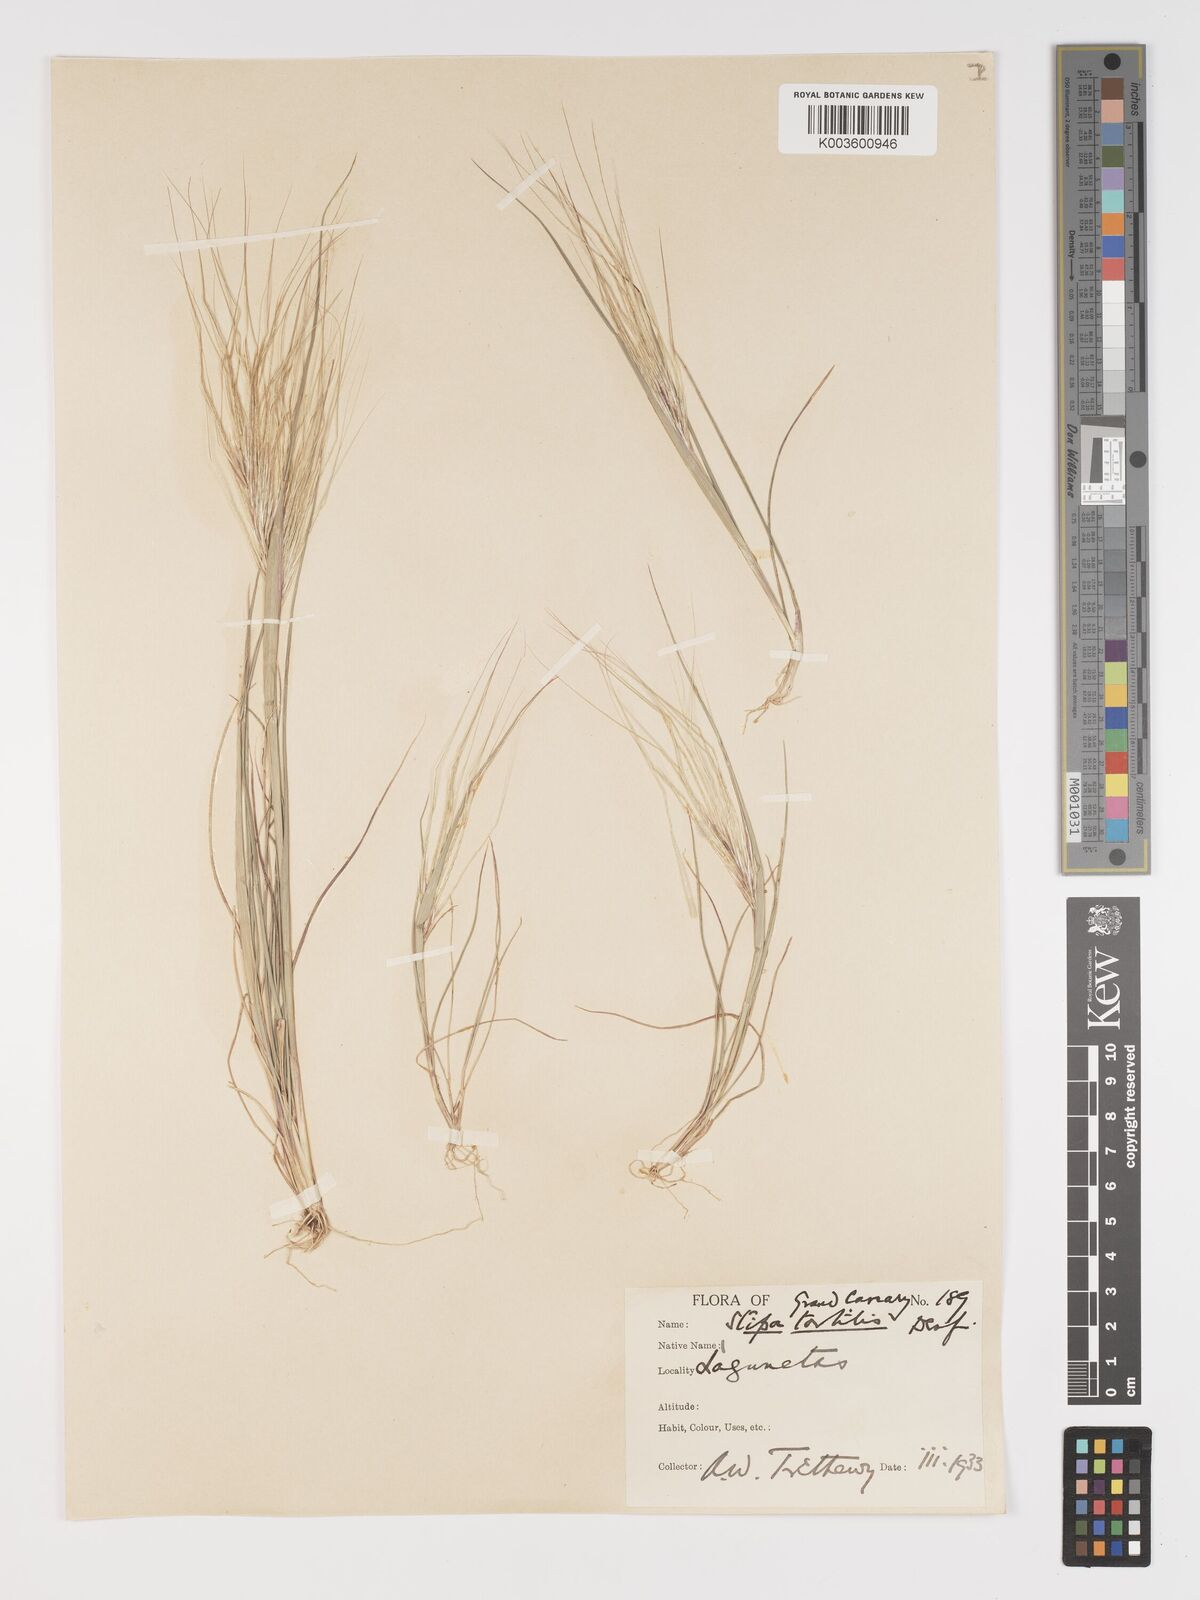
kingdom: Plantae
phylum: Tracheophyta
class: Liliopsida
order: Poales
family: Poaceae
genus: Stipa
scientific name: Stipa dregeana
